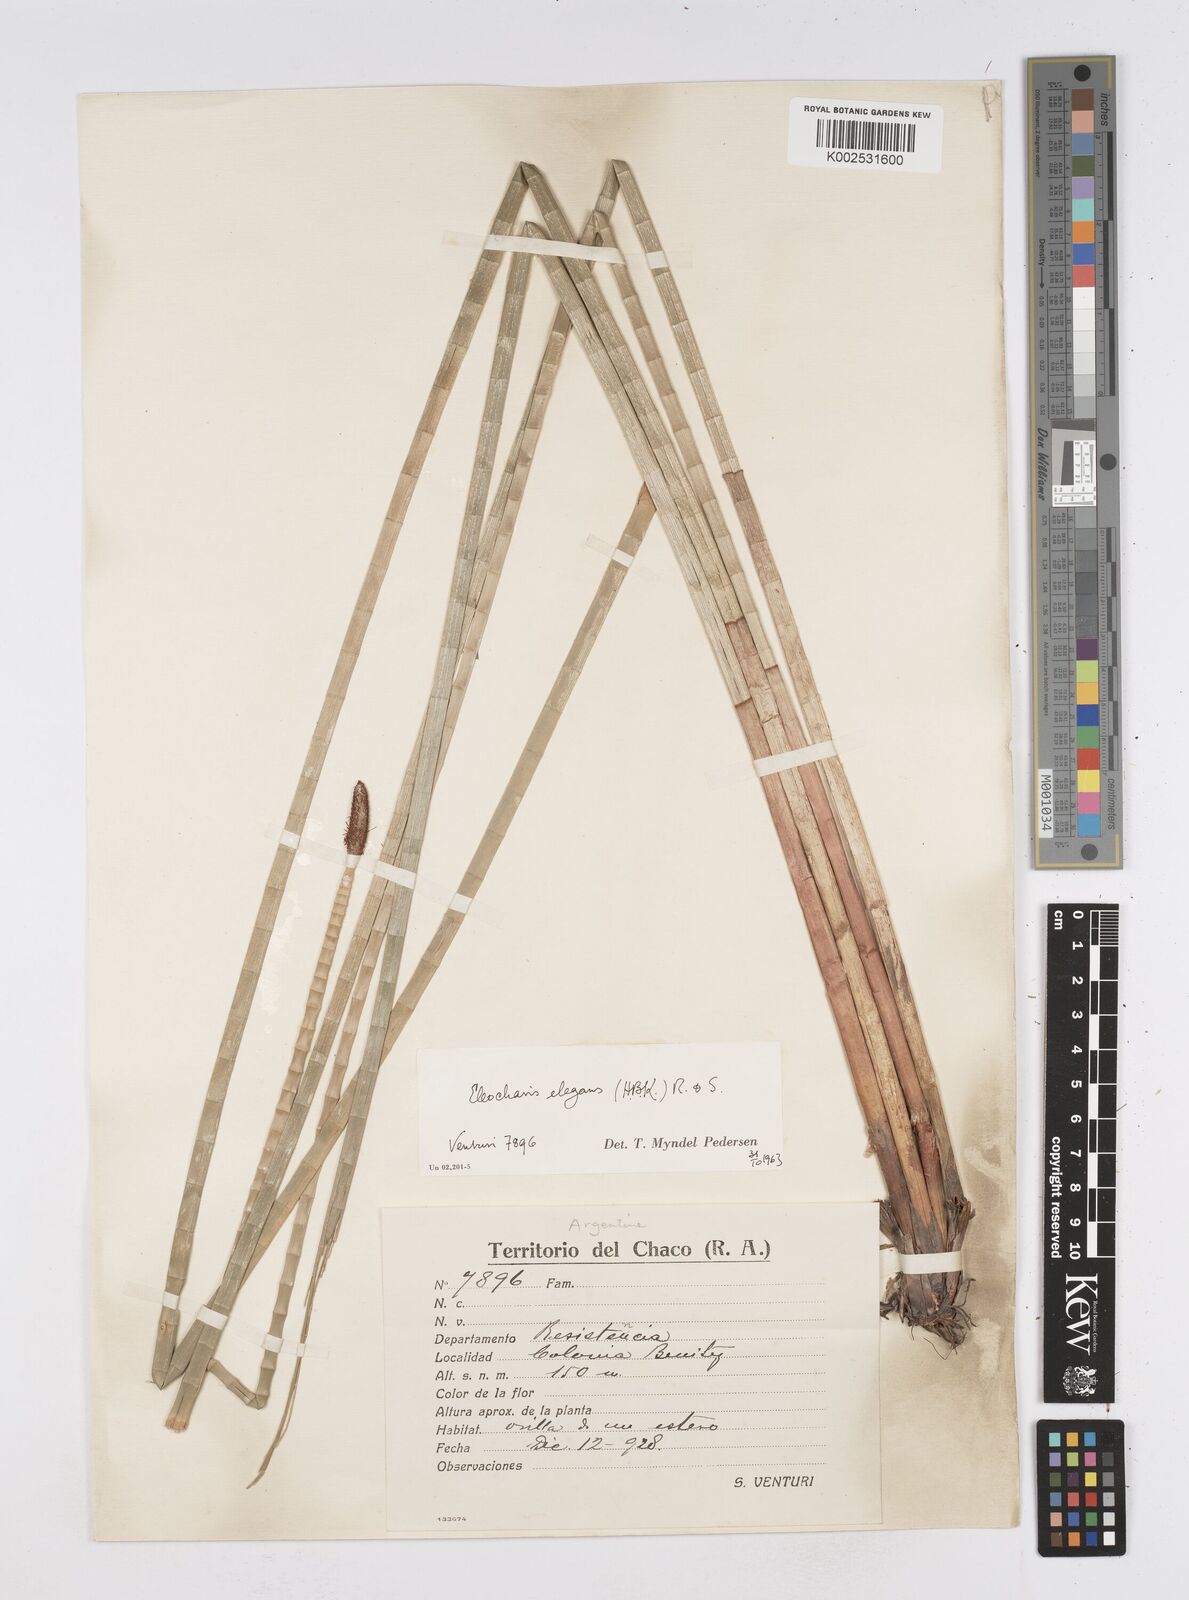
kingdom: Plantae
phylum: Tracheophyta
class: Liliopsida
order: Poales
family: Cyperaceae
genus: Eleocharis
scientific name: Eleocharis elegans
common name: Elegant spike-rush
